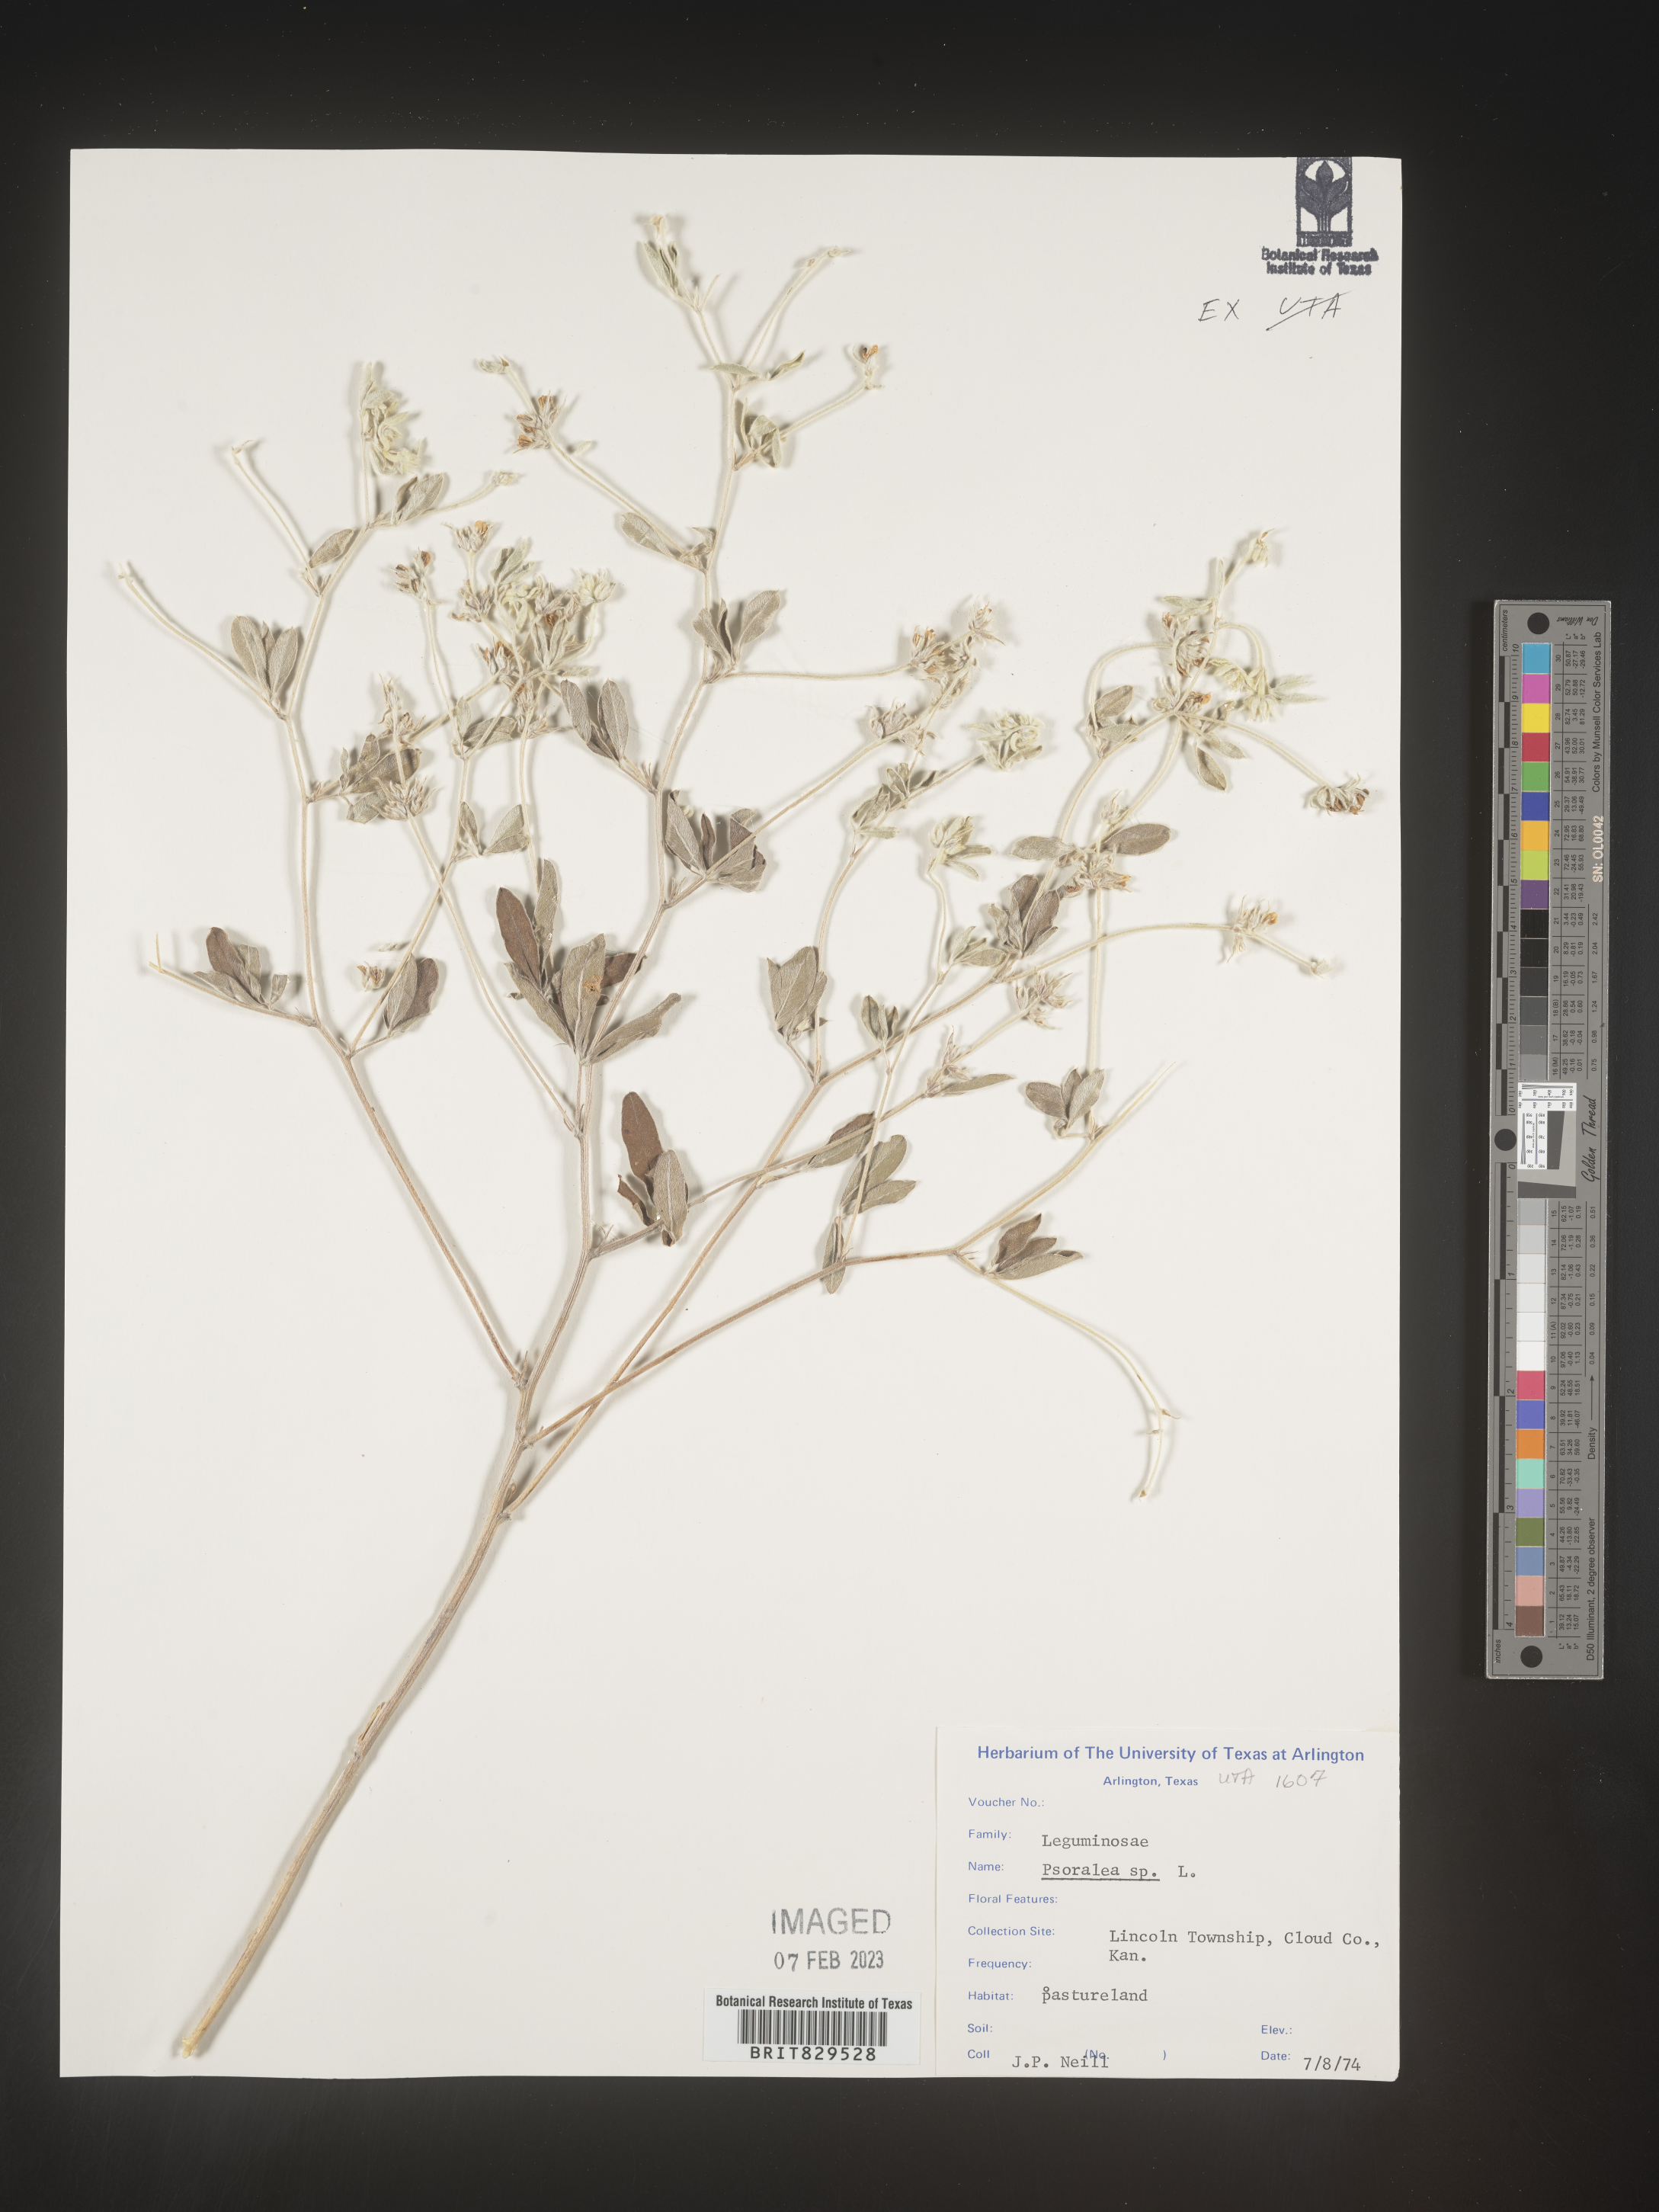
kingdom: Plantae
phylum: Tracheophyta
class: Magnoliopsida
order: Fabales
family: Fabaceae
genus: Psoralea
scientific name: Psoralea
